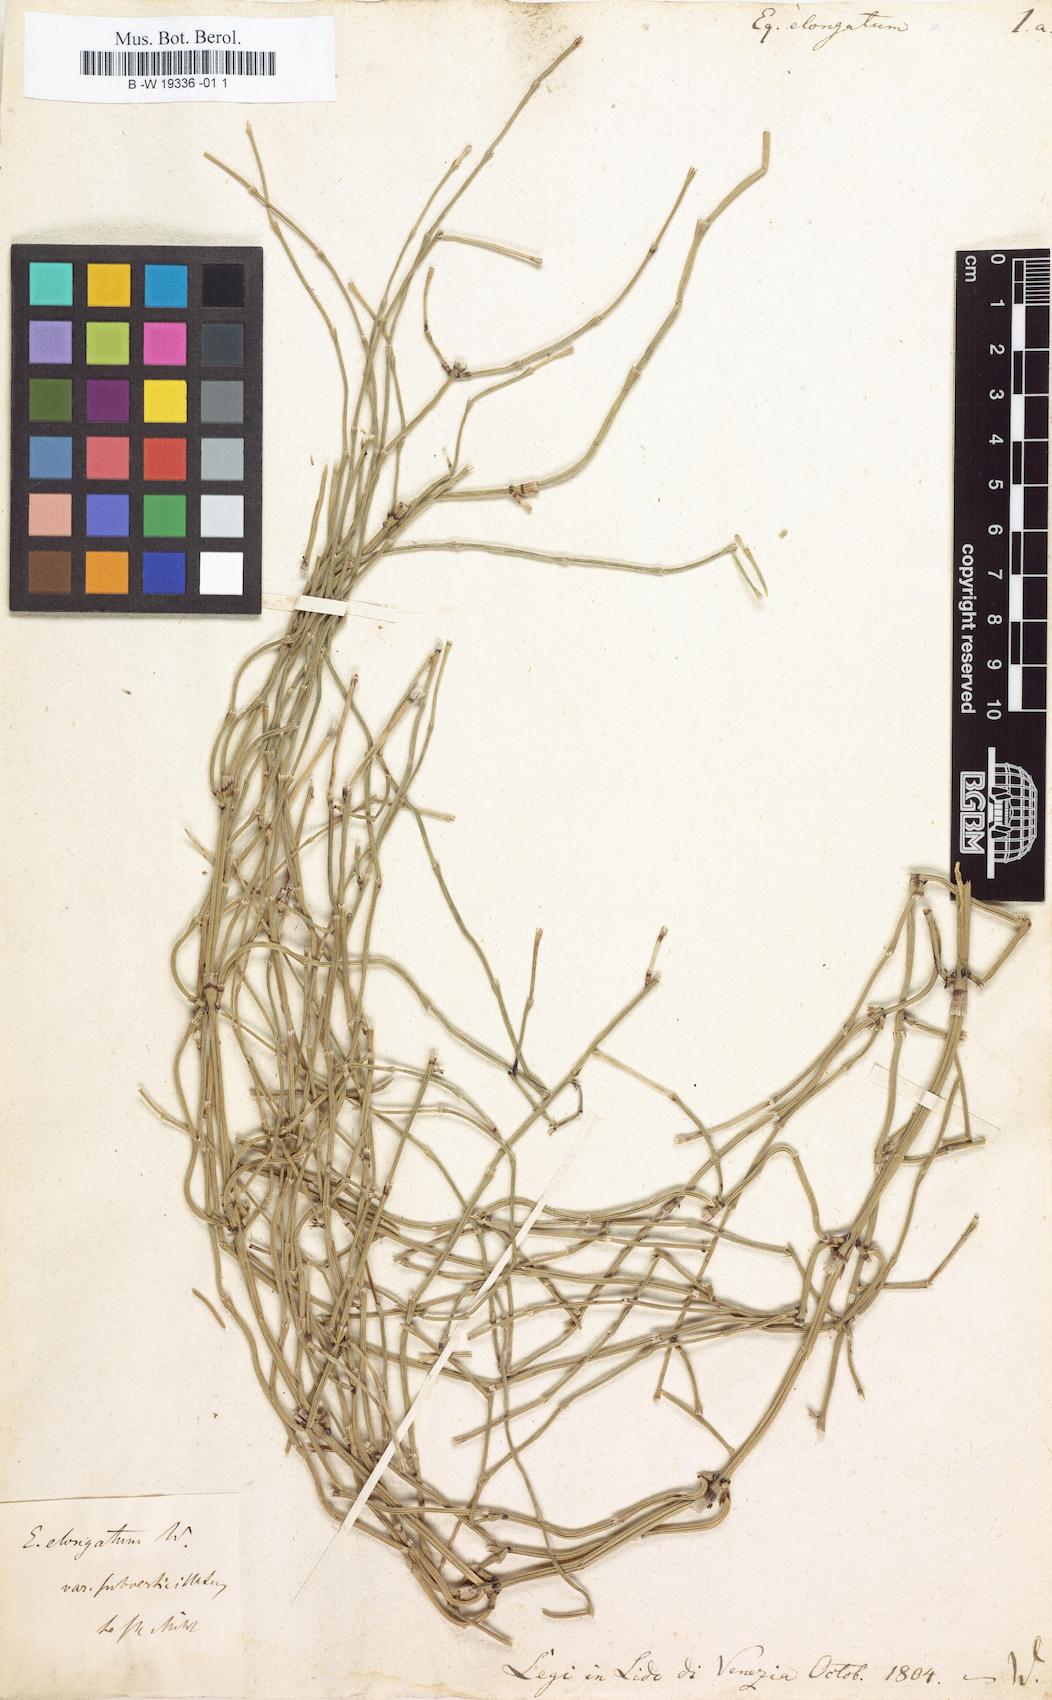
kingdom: Plantae
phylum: Tracheophyta
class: Polypodiopsida
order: Equisetales
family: Equisetaceae
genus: Equisetum
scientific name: Equisetum ramosissimum
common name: Branched horsetail
